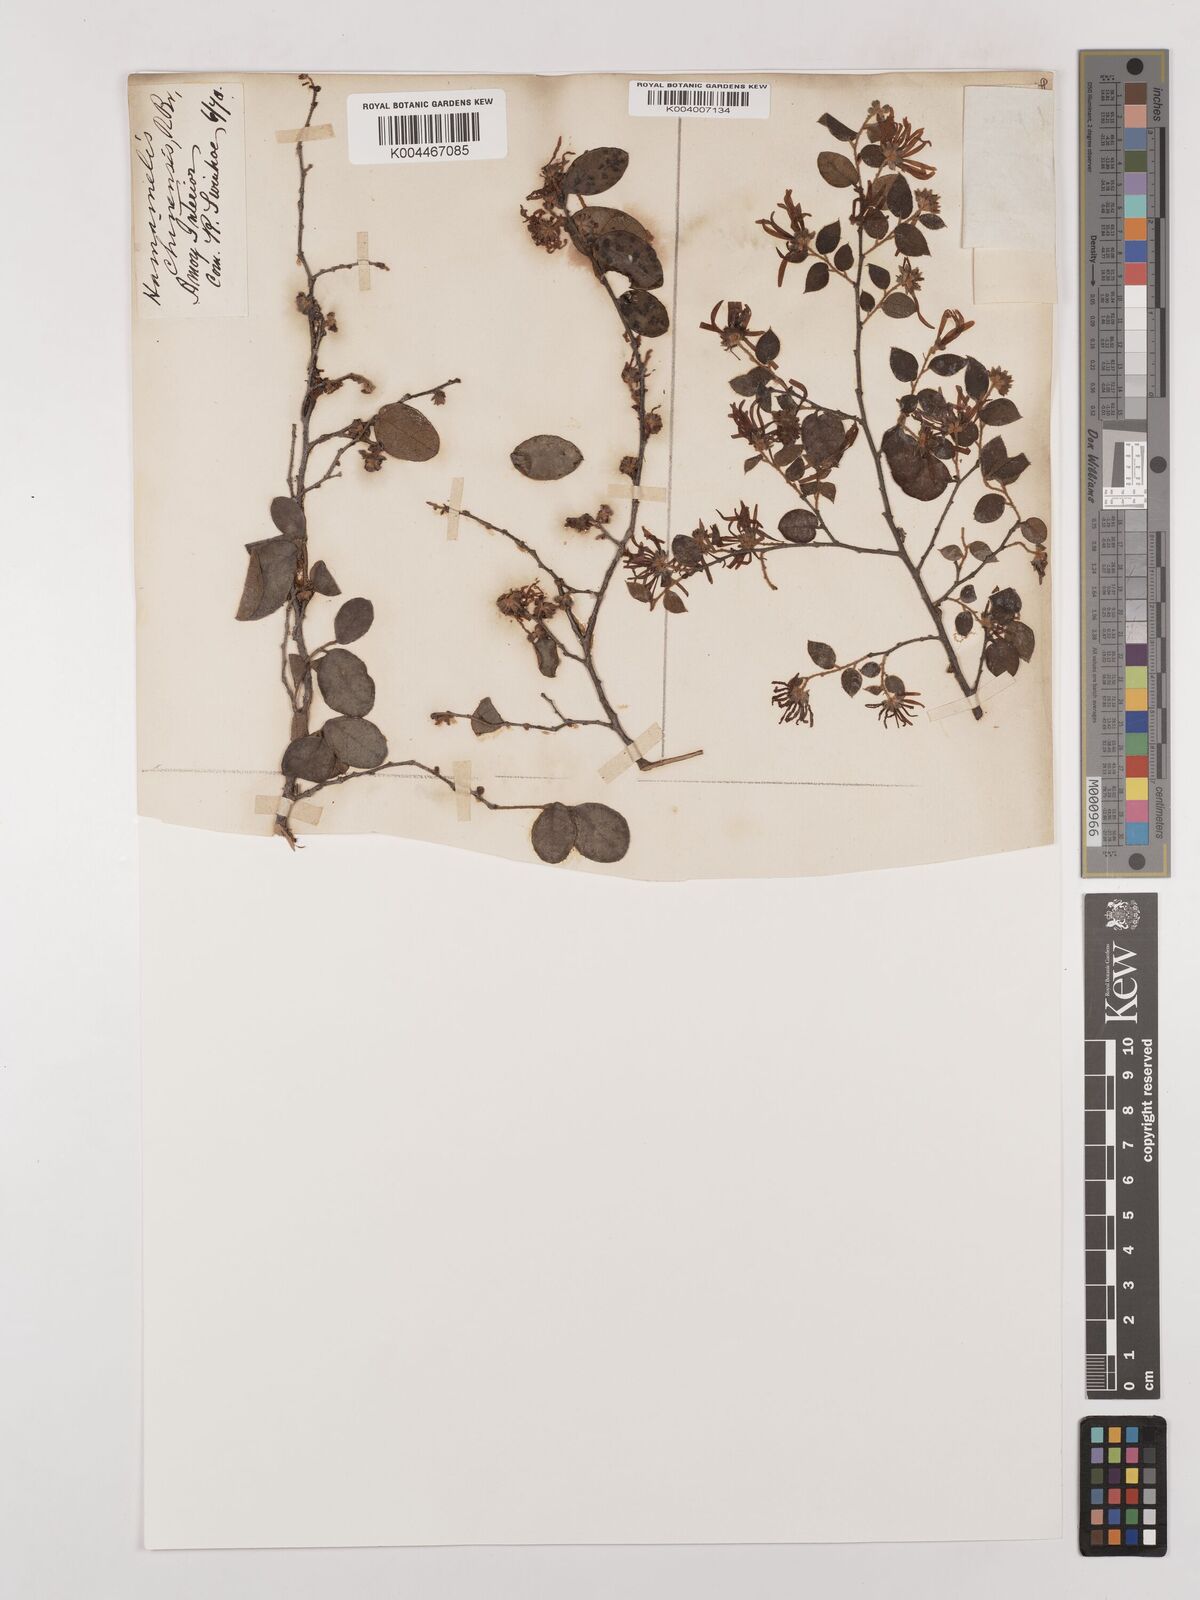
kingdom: Plantae
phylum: Tracheophyta
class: Magnoliopsida
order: Saxifragales
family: Hamamelidaceae
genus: Loropetalum
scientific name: Loropetalum
